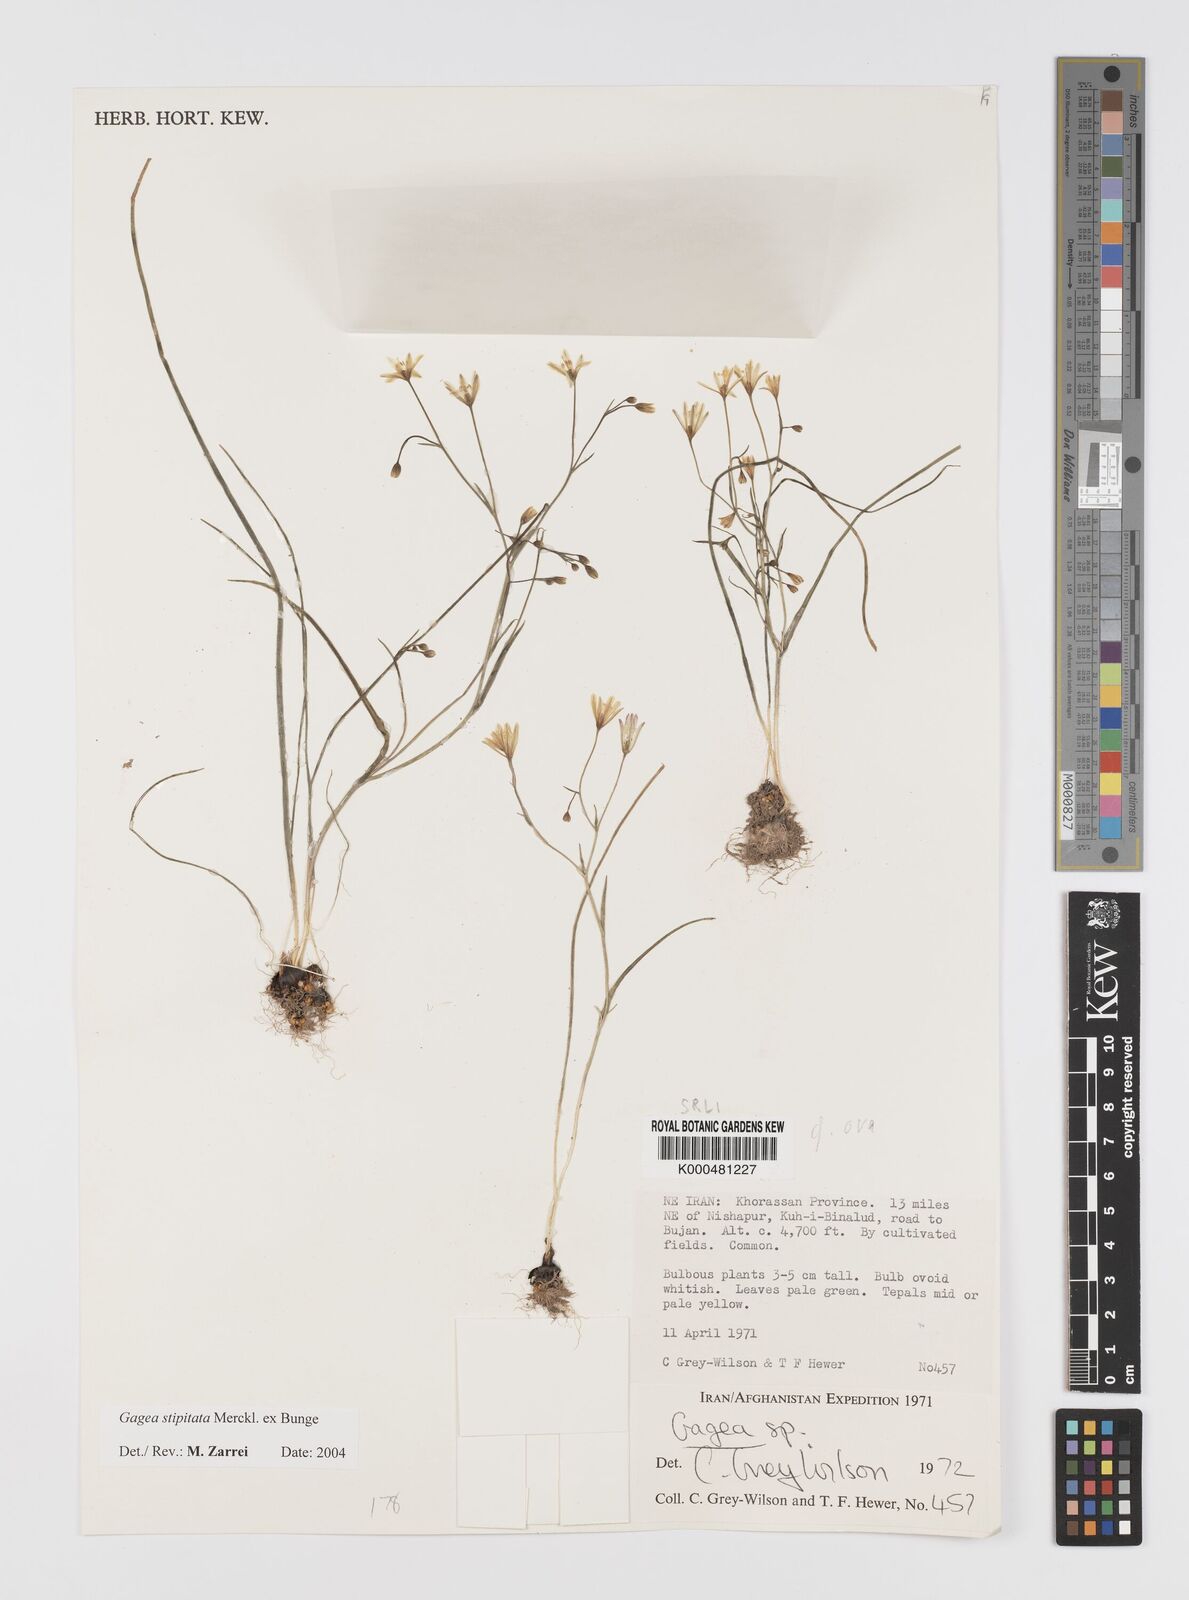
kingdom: Plantae
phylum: Tracheophyta
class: Liliopsida
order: Liliales
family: Liliaceae
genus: Gagea
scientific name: Gagea kunawurensis
